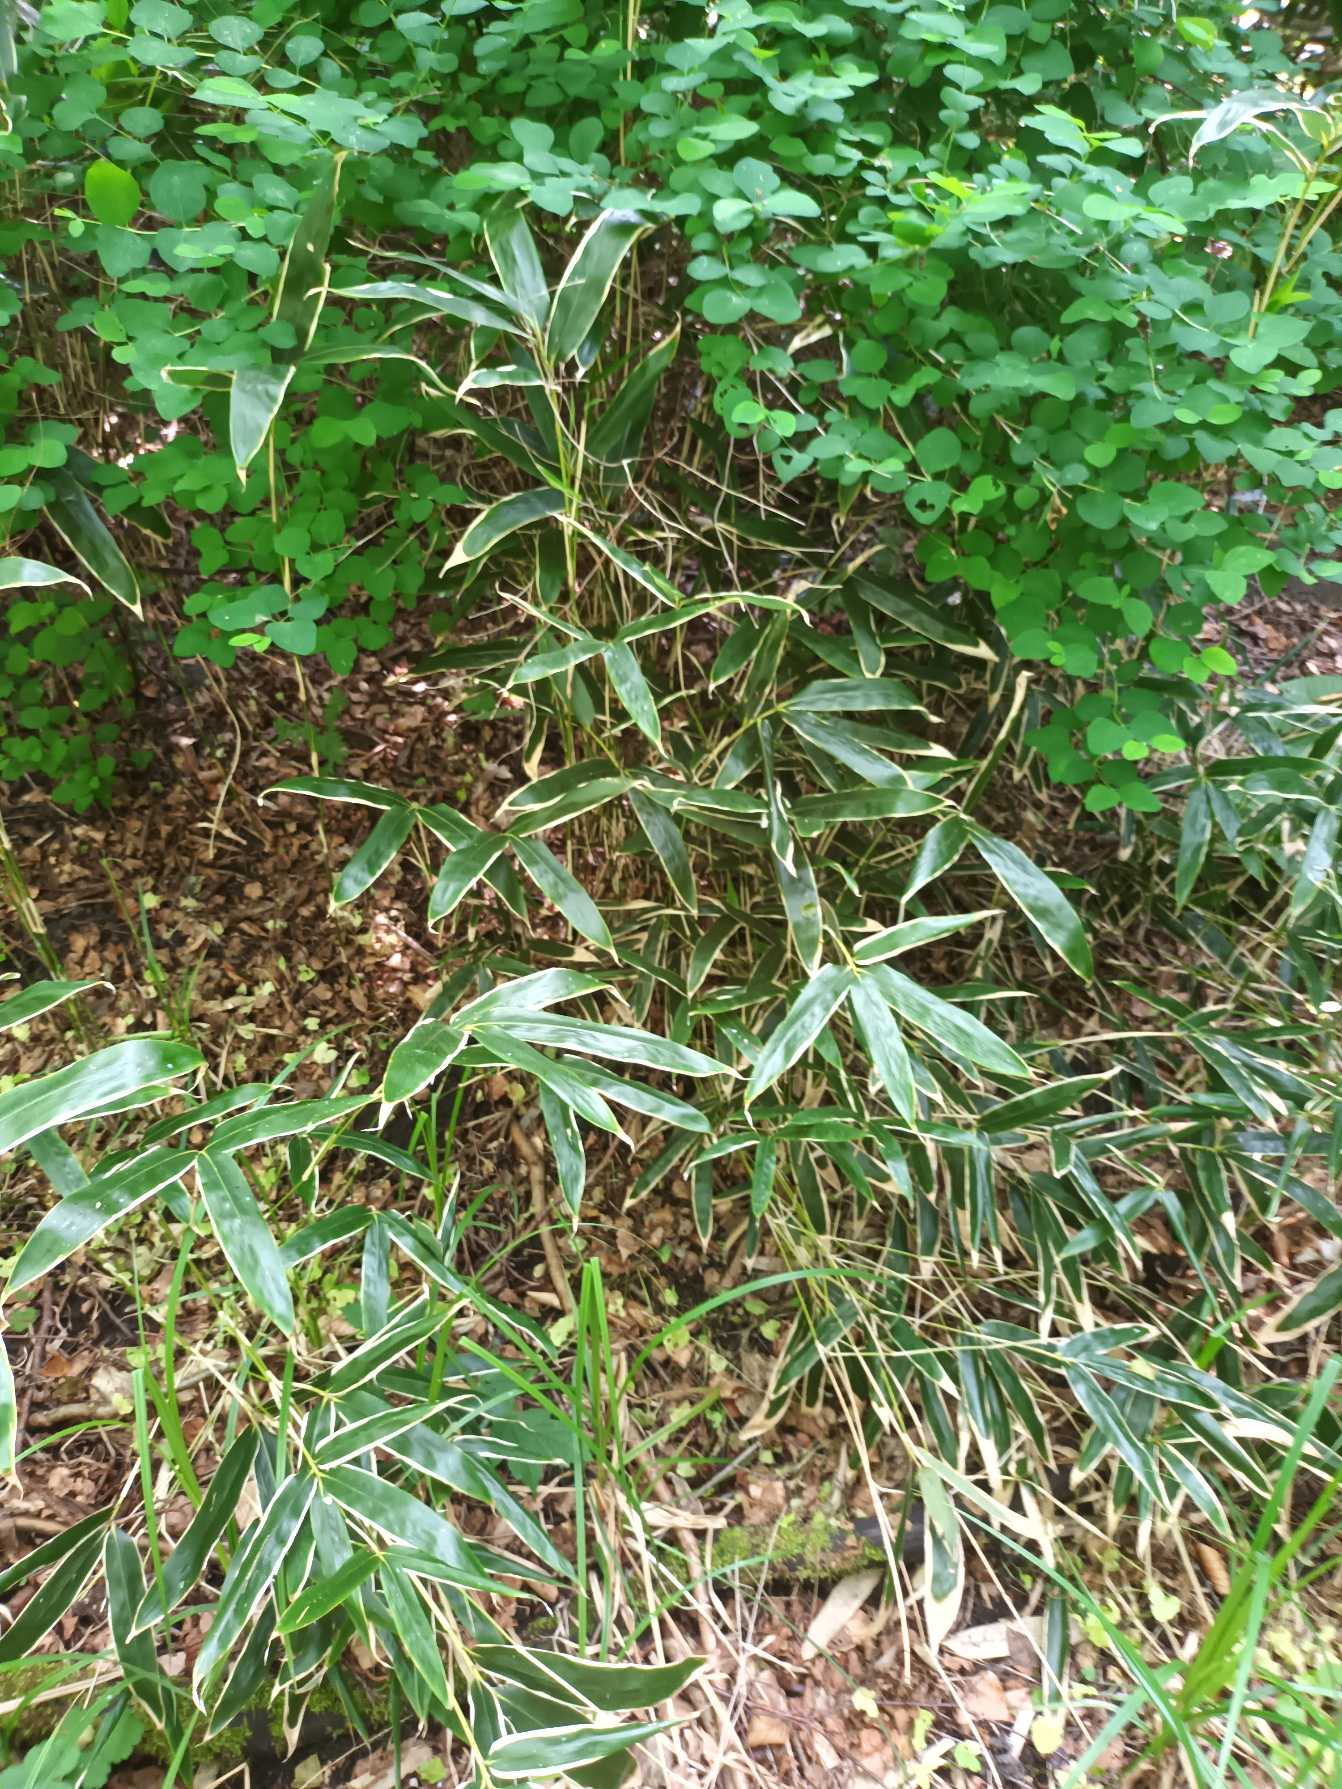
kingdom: Plantae
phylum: Tracheophyta
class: Liliopsida
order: Poales
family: Poaceae
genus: Sasa
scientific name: Sasa veitchii
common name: Hvidrandet bambus
